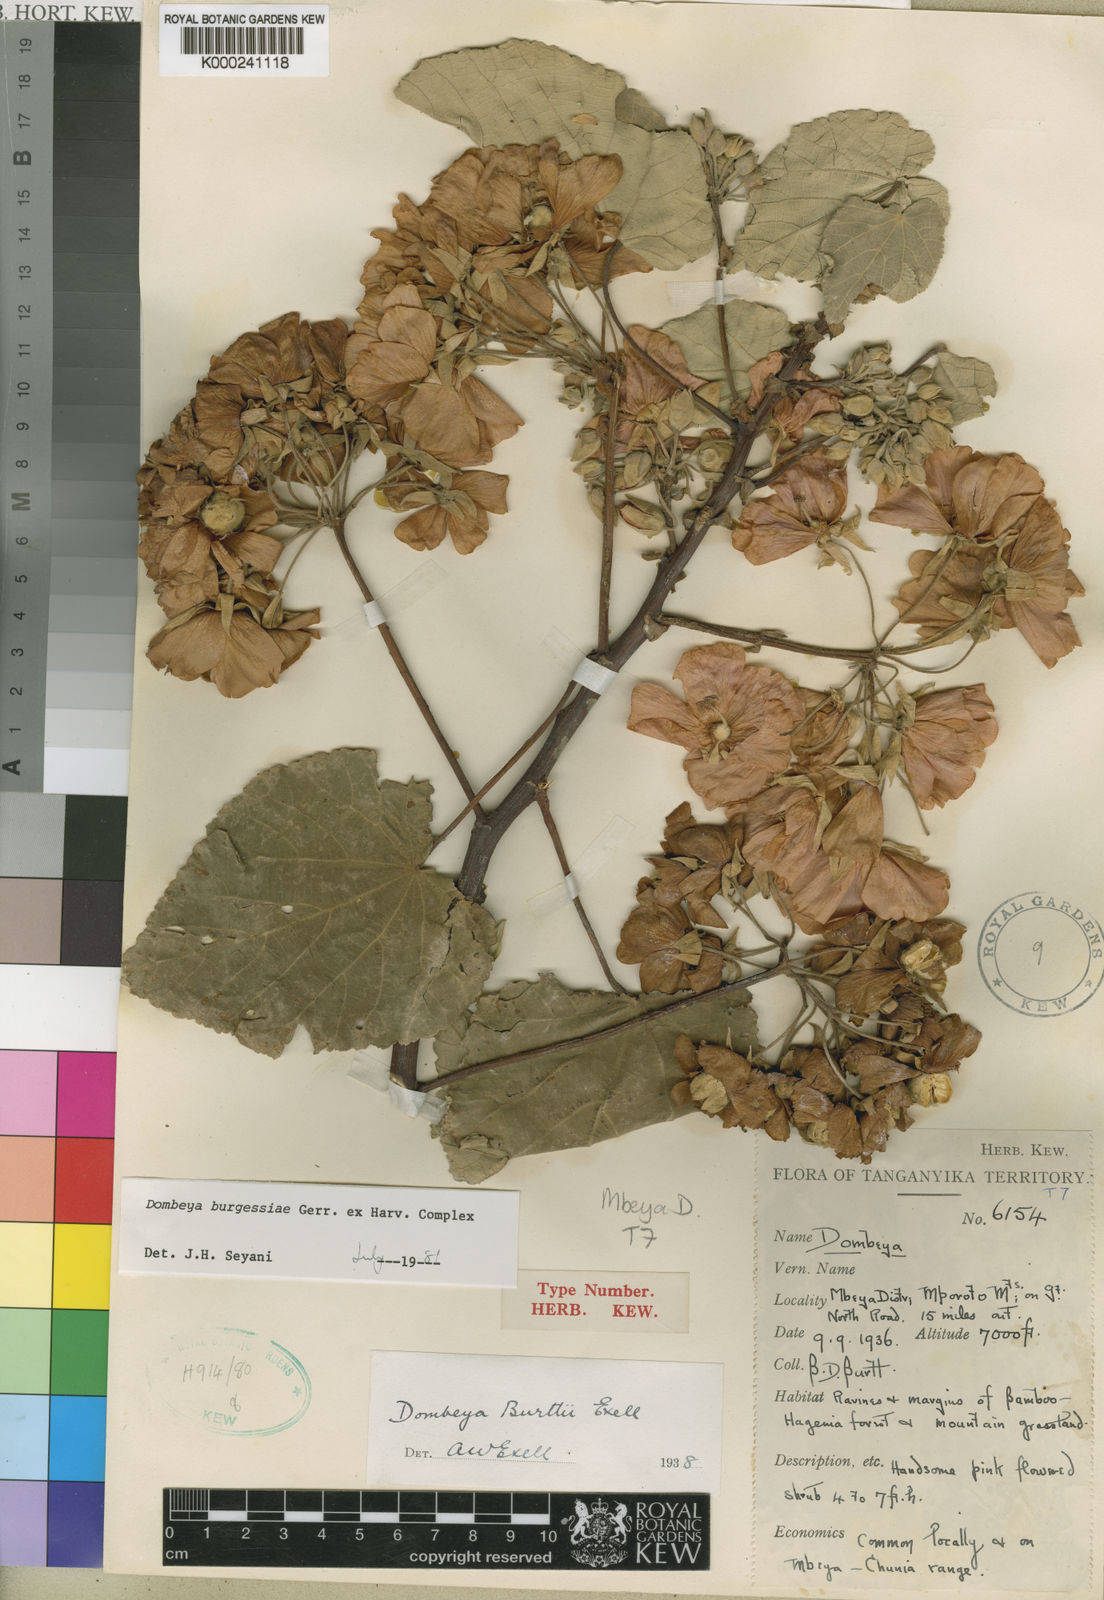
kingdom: Plantae
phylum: Tracheophyta
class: Magnoliopsida
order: Malvales
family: Malvaceae
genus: Dombeya
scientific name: Dombeya burgessiae
